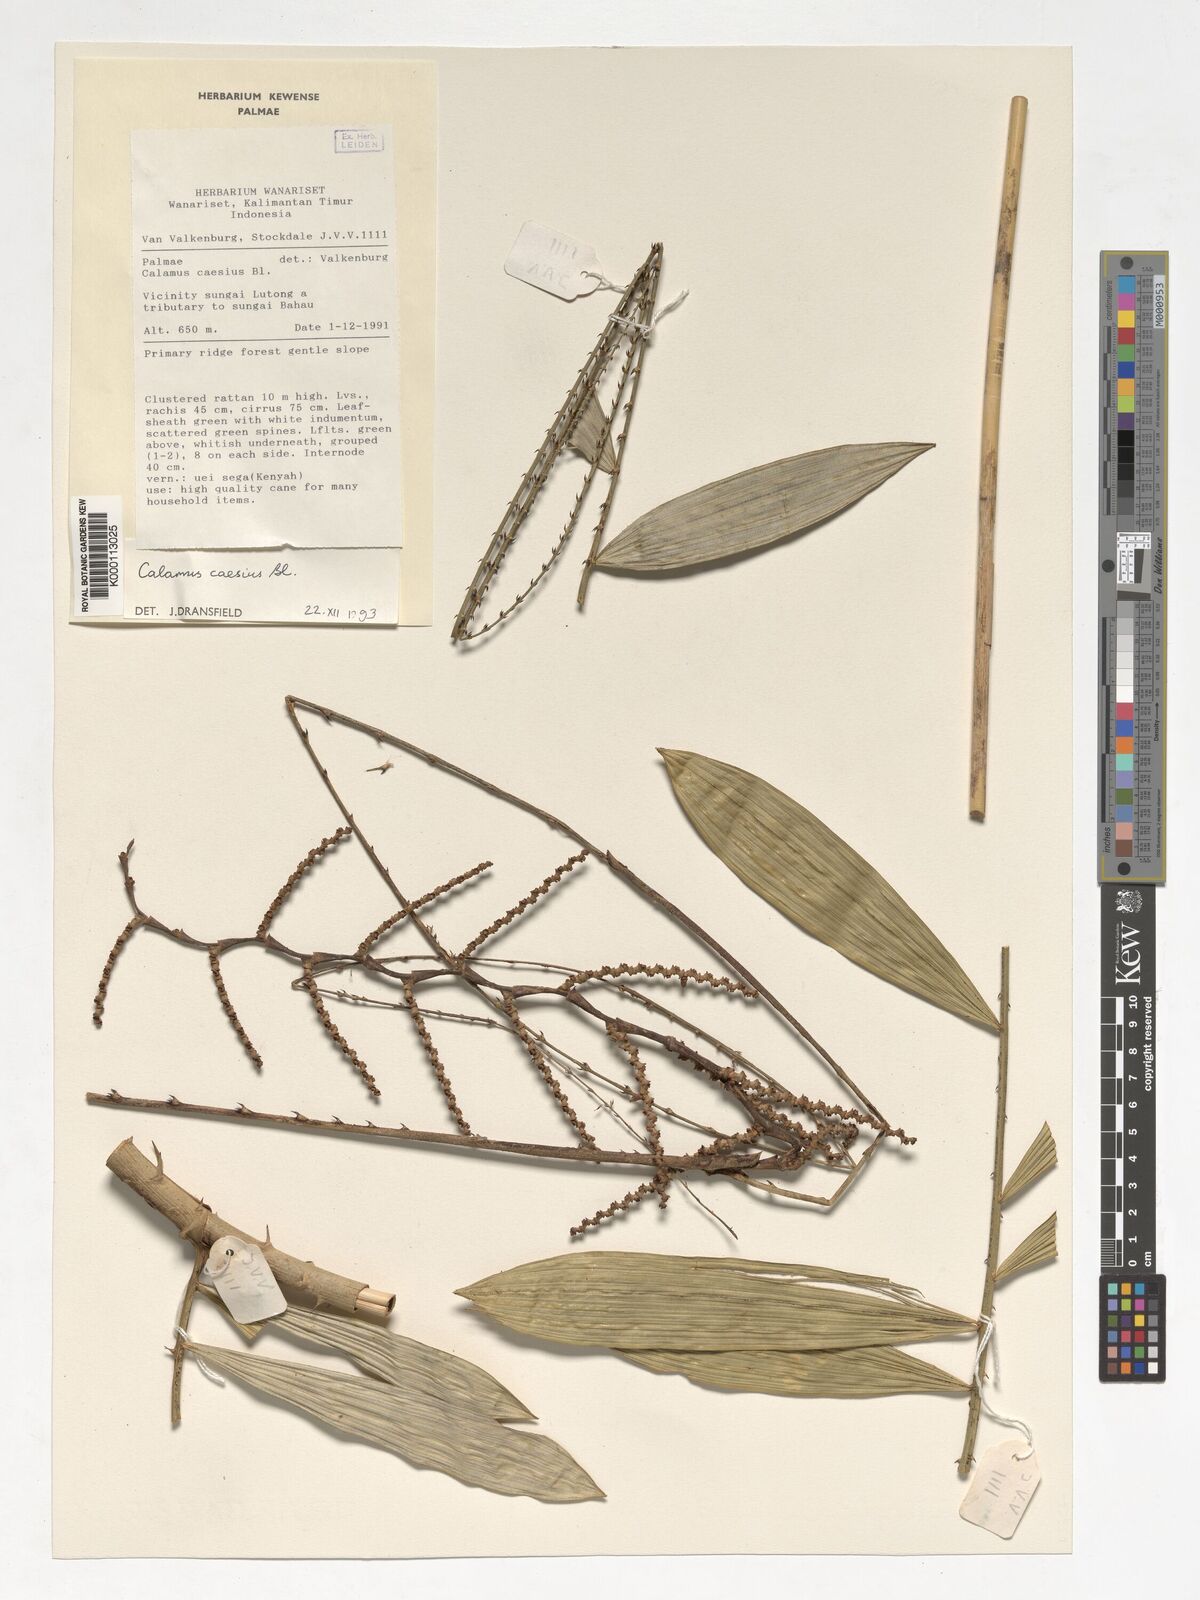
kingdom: Plantae
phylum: Tracheophyta
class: Liliopsida
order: Arecales
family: Arecaceae
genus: Calamus
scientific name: Calamus caesius
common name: Rattan palm
